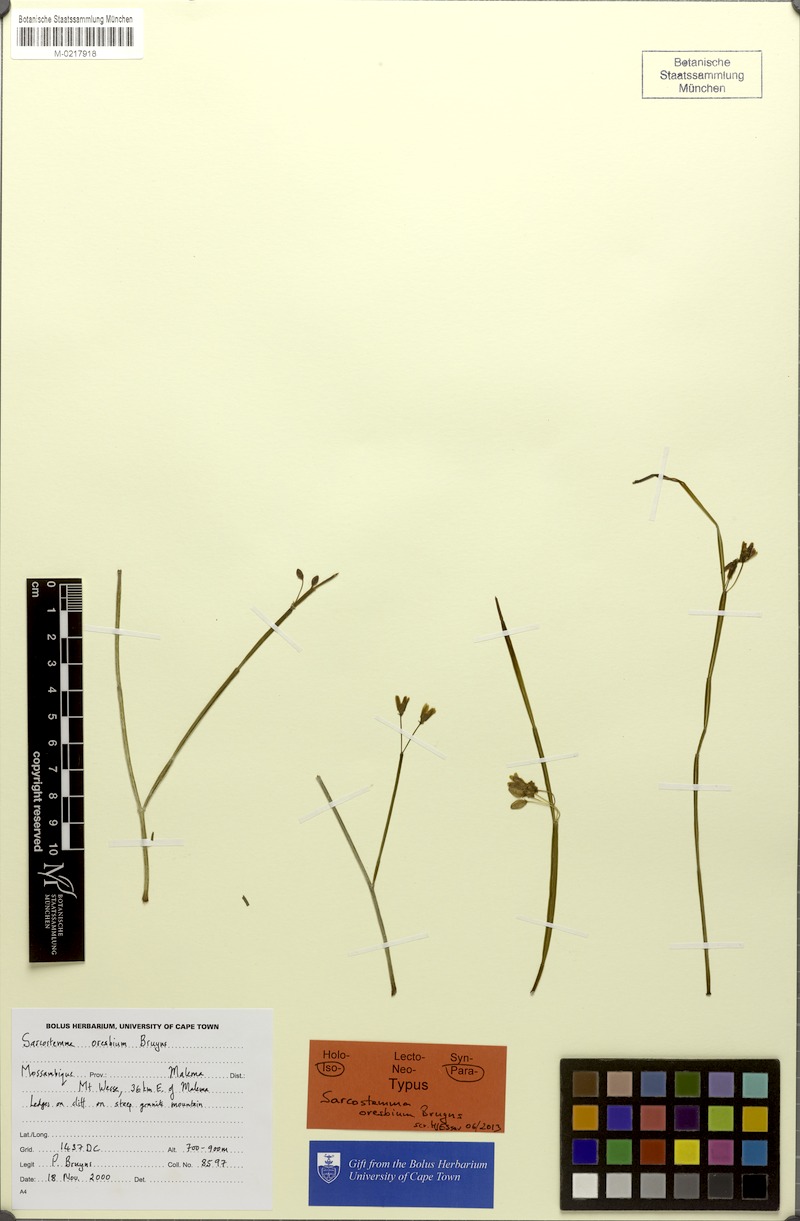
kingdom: Plantae
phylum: Tracheophyta
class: Magnoliopsida
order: Gentianales
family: Apocynaceae
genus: Cynanchum
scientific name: Cynanchum oresbium
